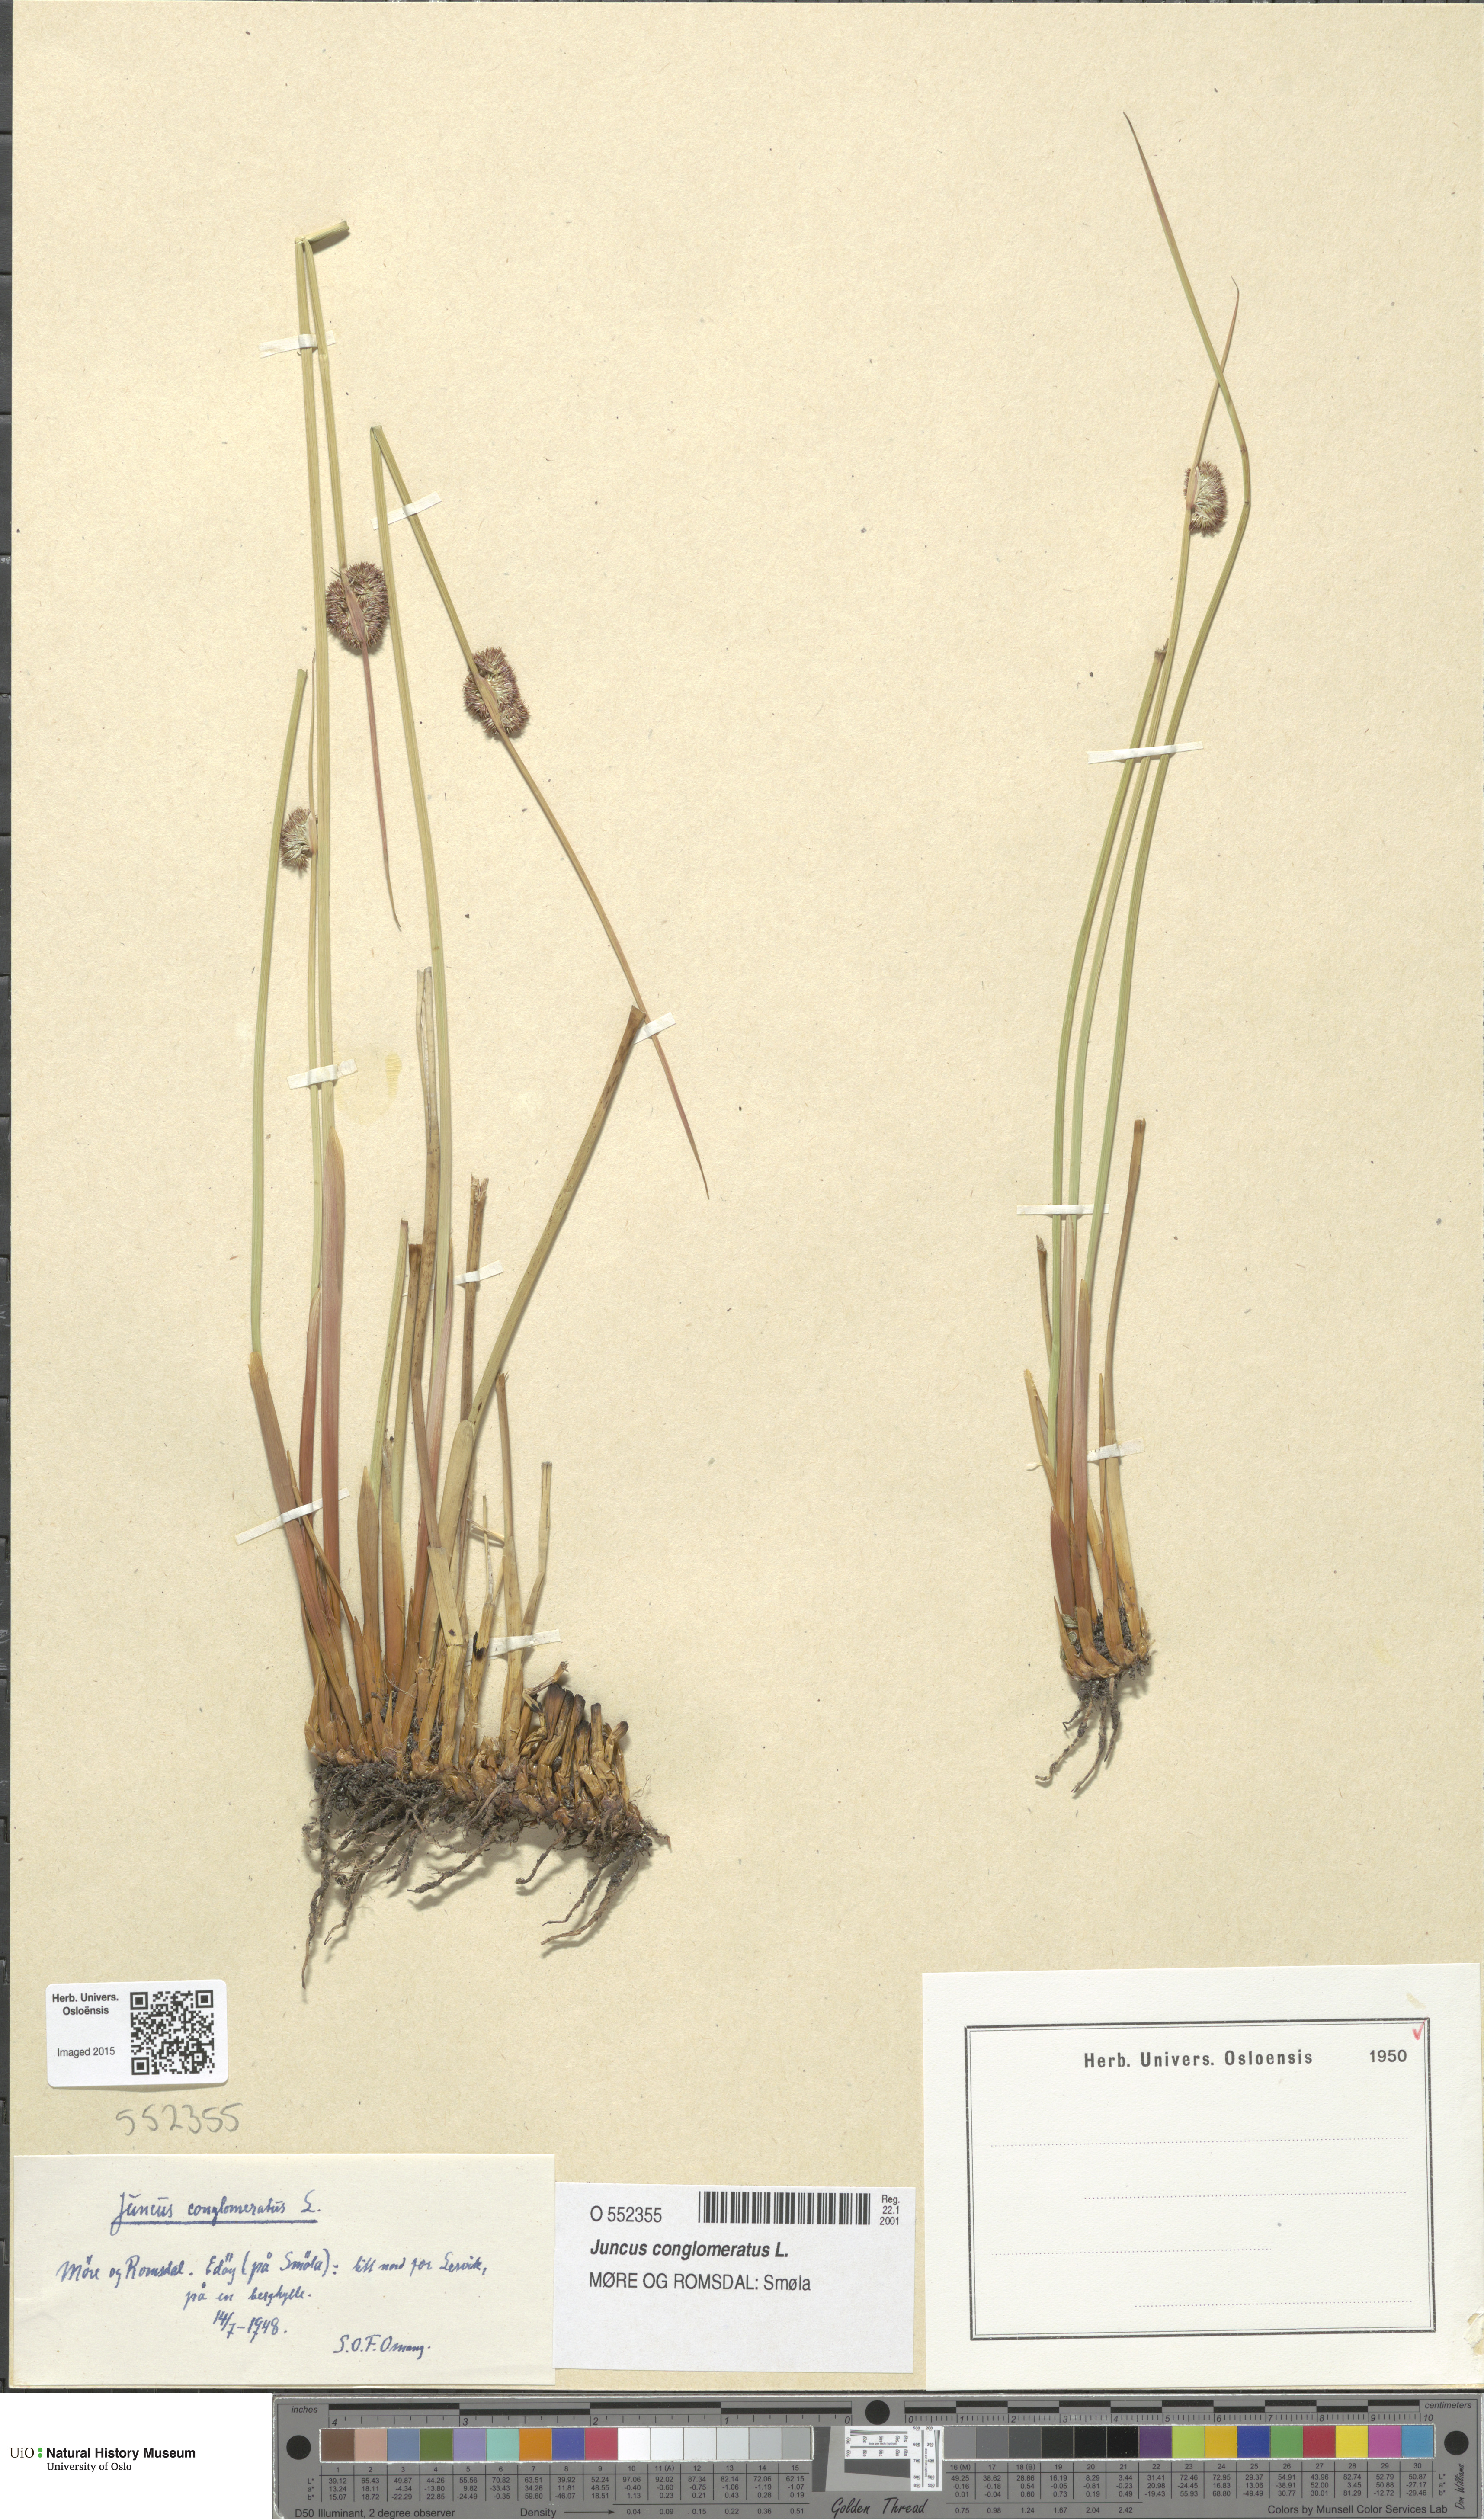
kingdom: Plantae
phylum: Tracheophyta
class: Liliopsida
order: Poales
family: Juncaceae
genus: Juncus
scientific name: Juncus conglomeratus
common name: Compact rush
